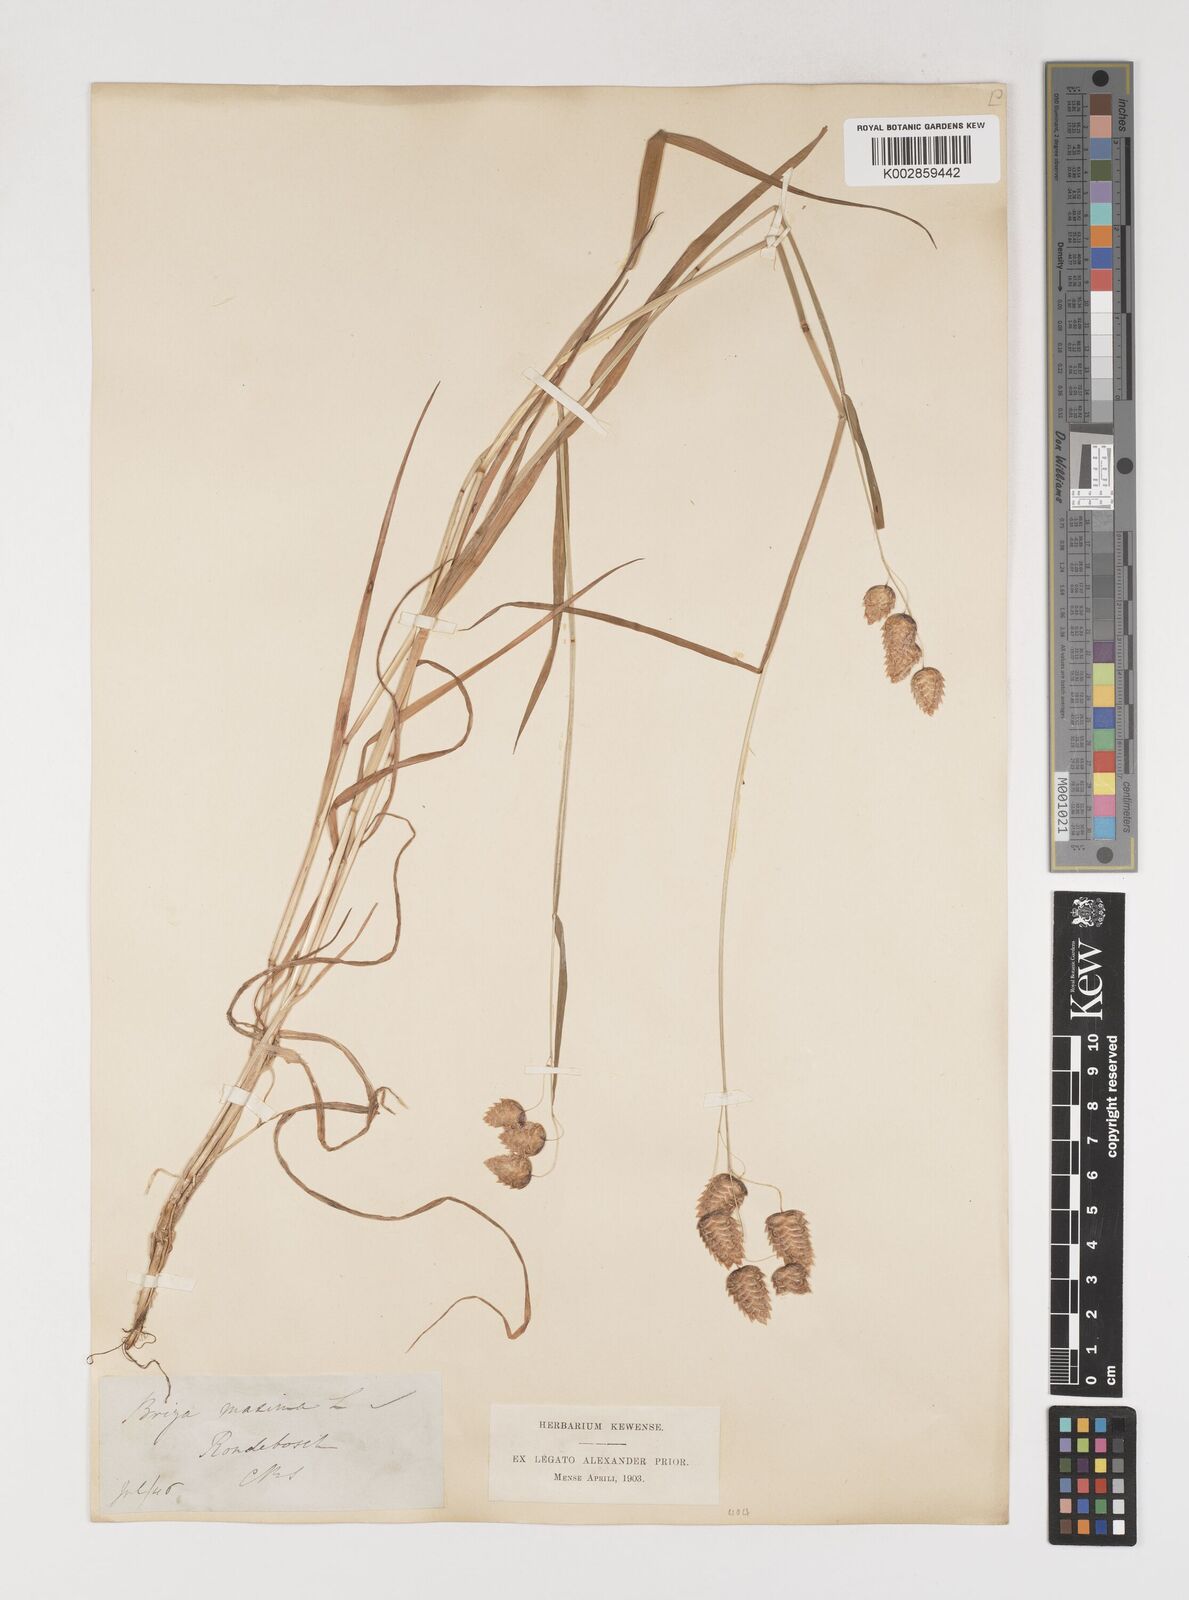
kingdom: Plantae
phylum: Tracheophyta
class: Liliopsida
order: Poales
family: Poaceae
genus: Briza
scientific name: Briza maxima
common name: Big quakinggrass
